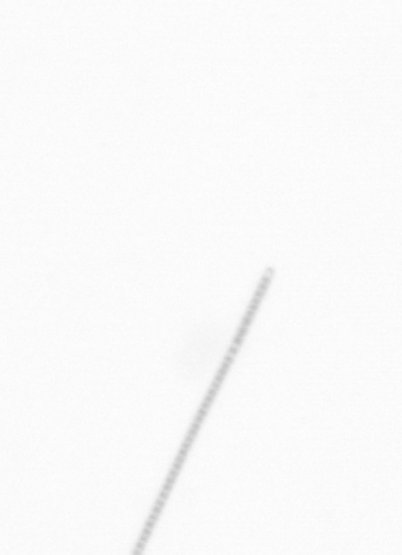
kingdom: Chromista
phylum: Ochrophyta
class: Bacillariophyceae
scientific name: Bacillariophyceae
